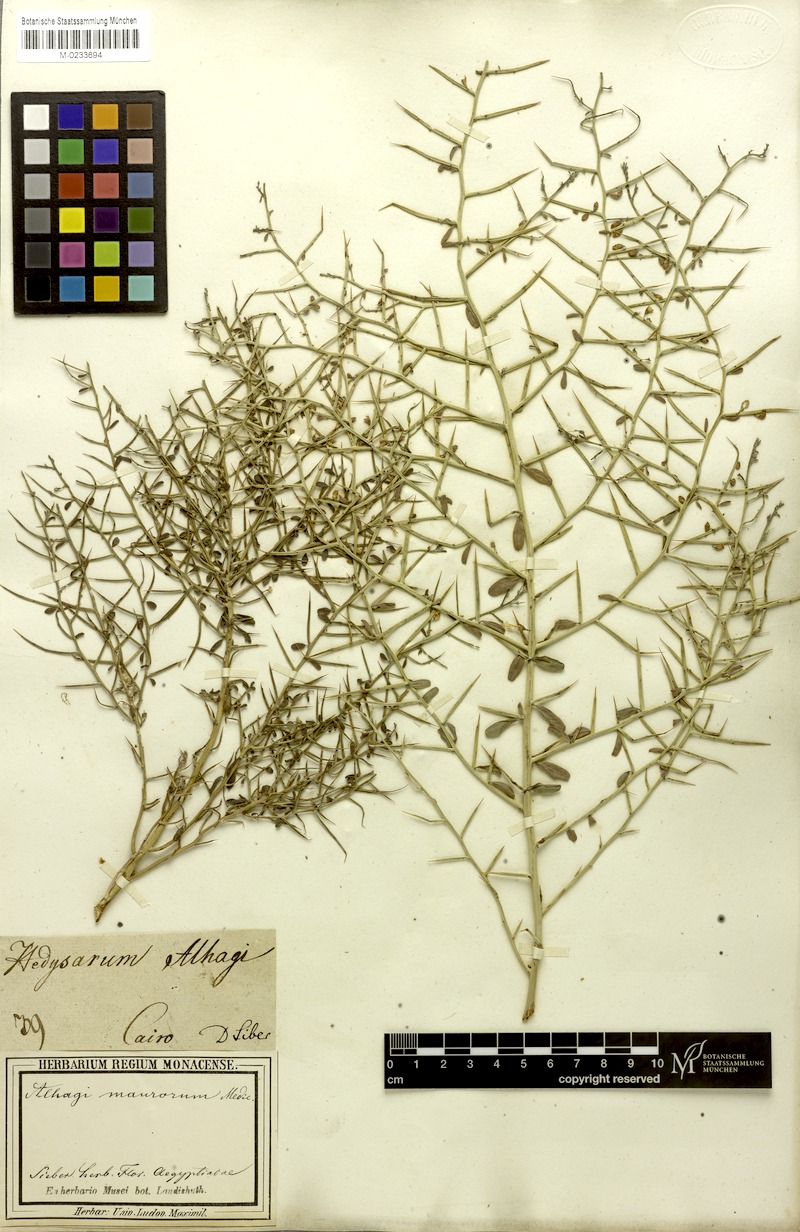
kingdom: Plantae
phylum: Tracheophyta
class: Magnoliopsida
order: Fabales
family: Fabaceae
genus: Alhagi
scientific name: Alhagi maurorum
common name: Camelthorn
